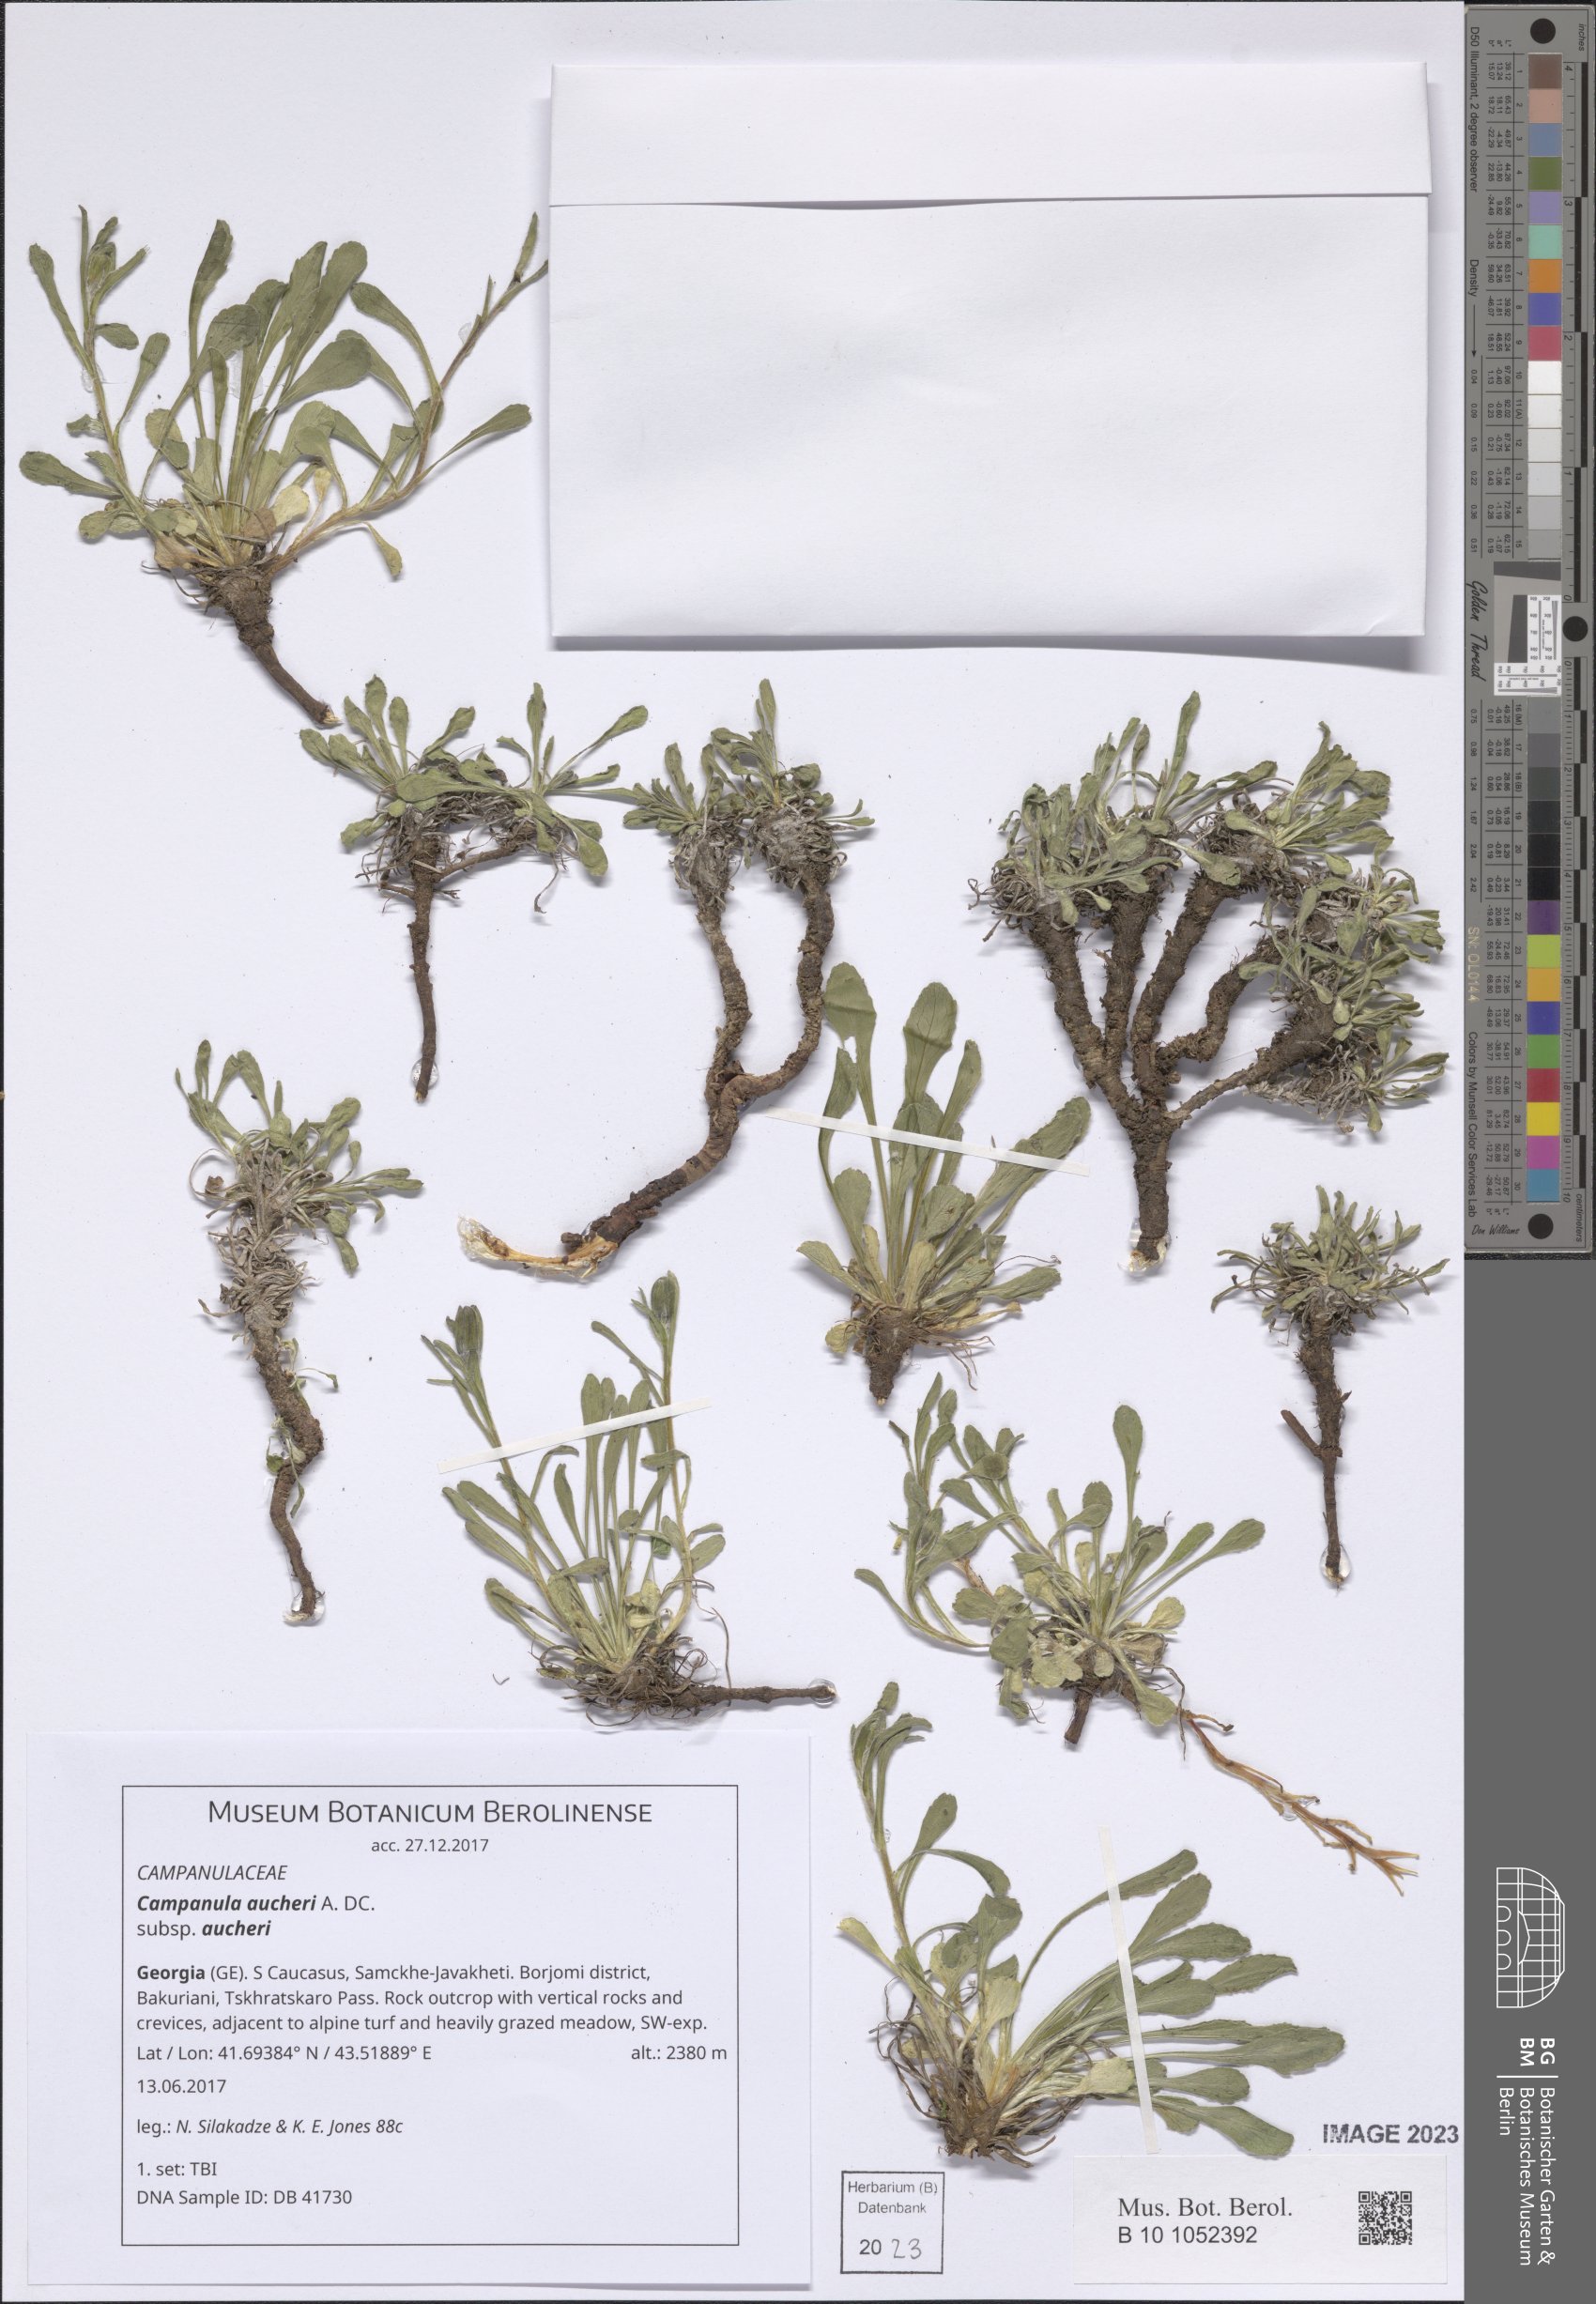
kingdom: Plantae
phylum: Tracheophyta
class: Magnoliopsida
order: Asterales
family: Campanulaceae
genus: Campanula
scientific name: Campanula saxifraga
